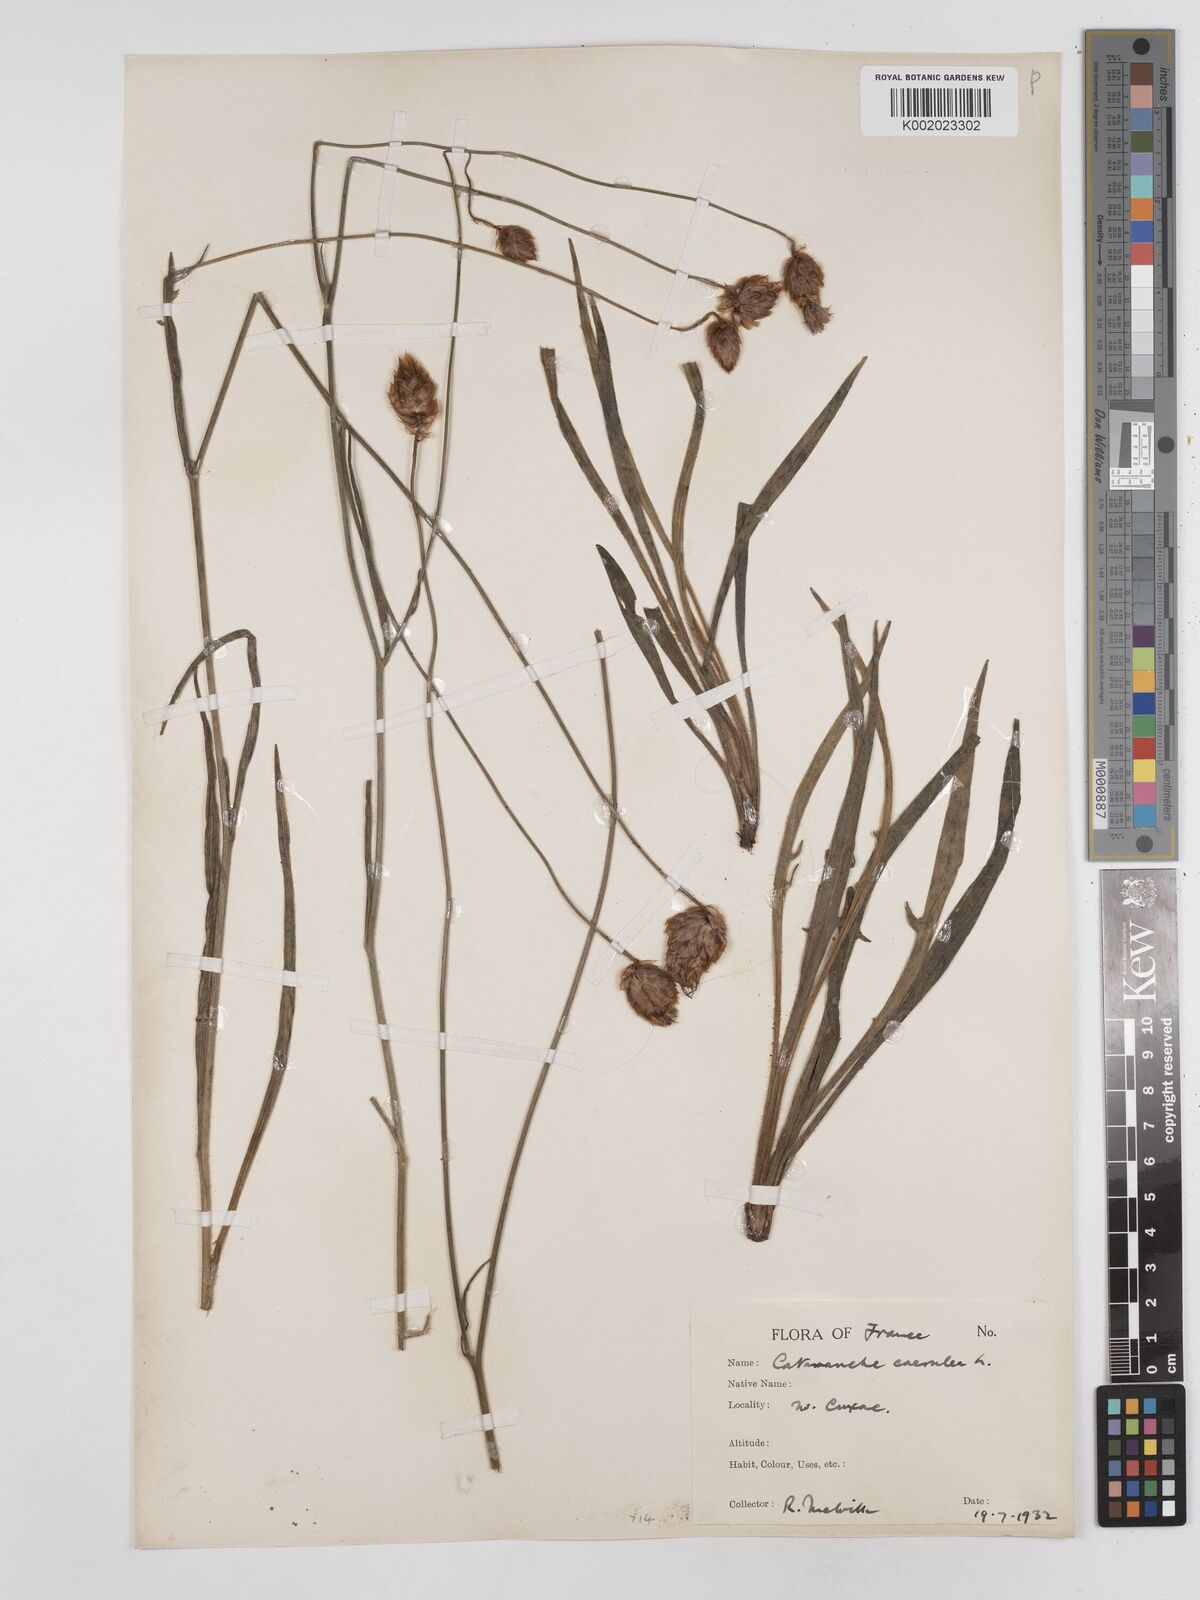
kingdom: Plantae
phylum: Tracheophyta
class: Magnoliopsida
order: Asterales
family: Asteraceae
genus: Catananche
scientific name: Catananche caerulea
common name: Blue cupidone
